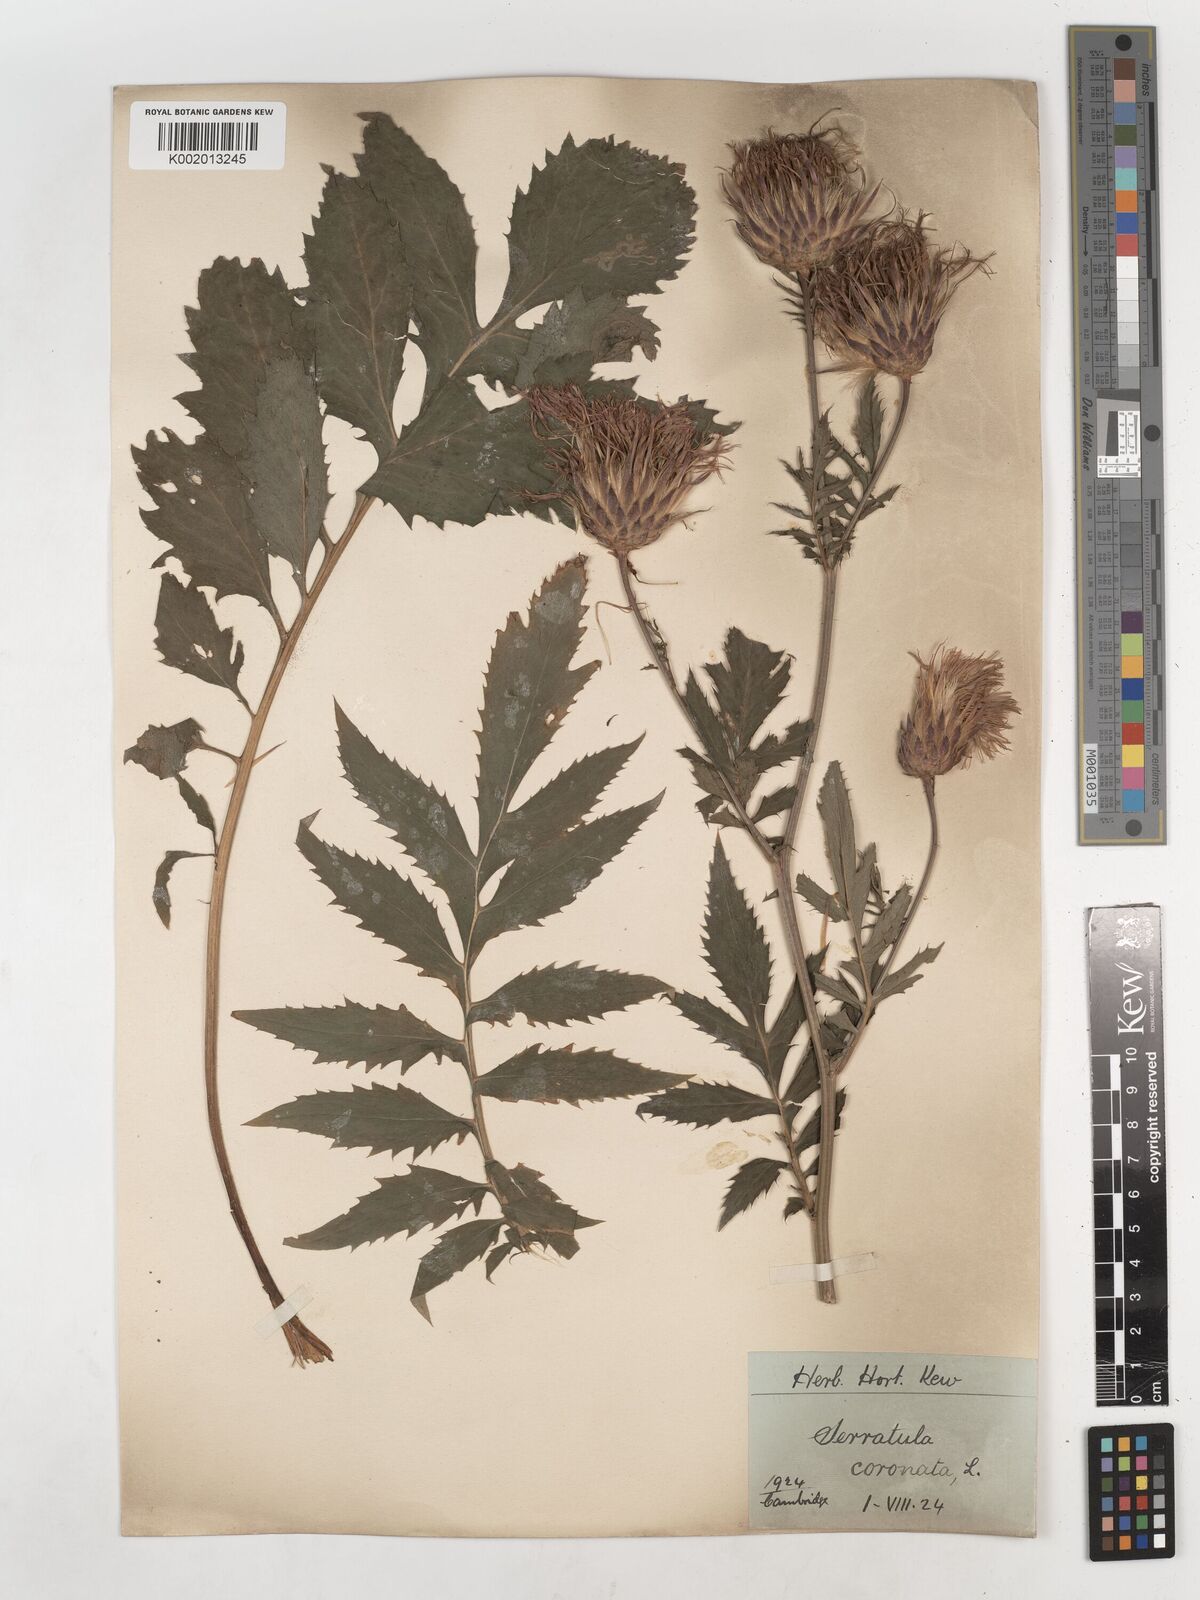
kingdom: Plantae
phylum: Tracheophyta
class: Magnoliopsida
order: Asterales
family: Asteraceae
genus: Serratula
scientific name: Serratula coronata
